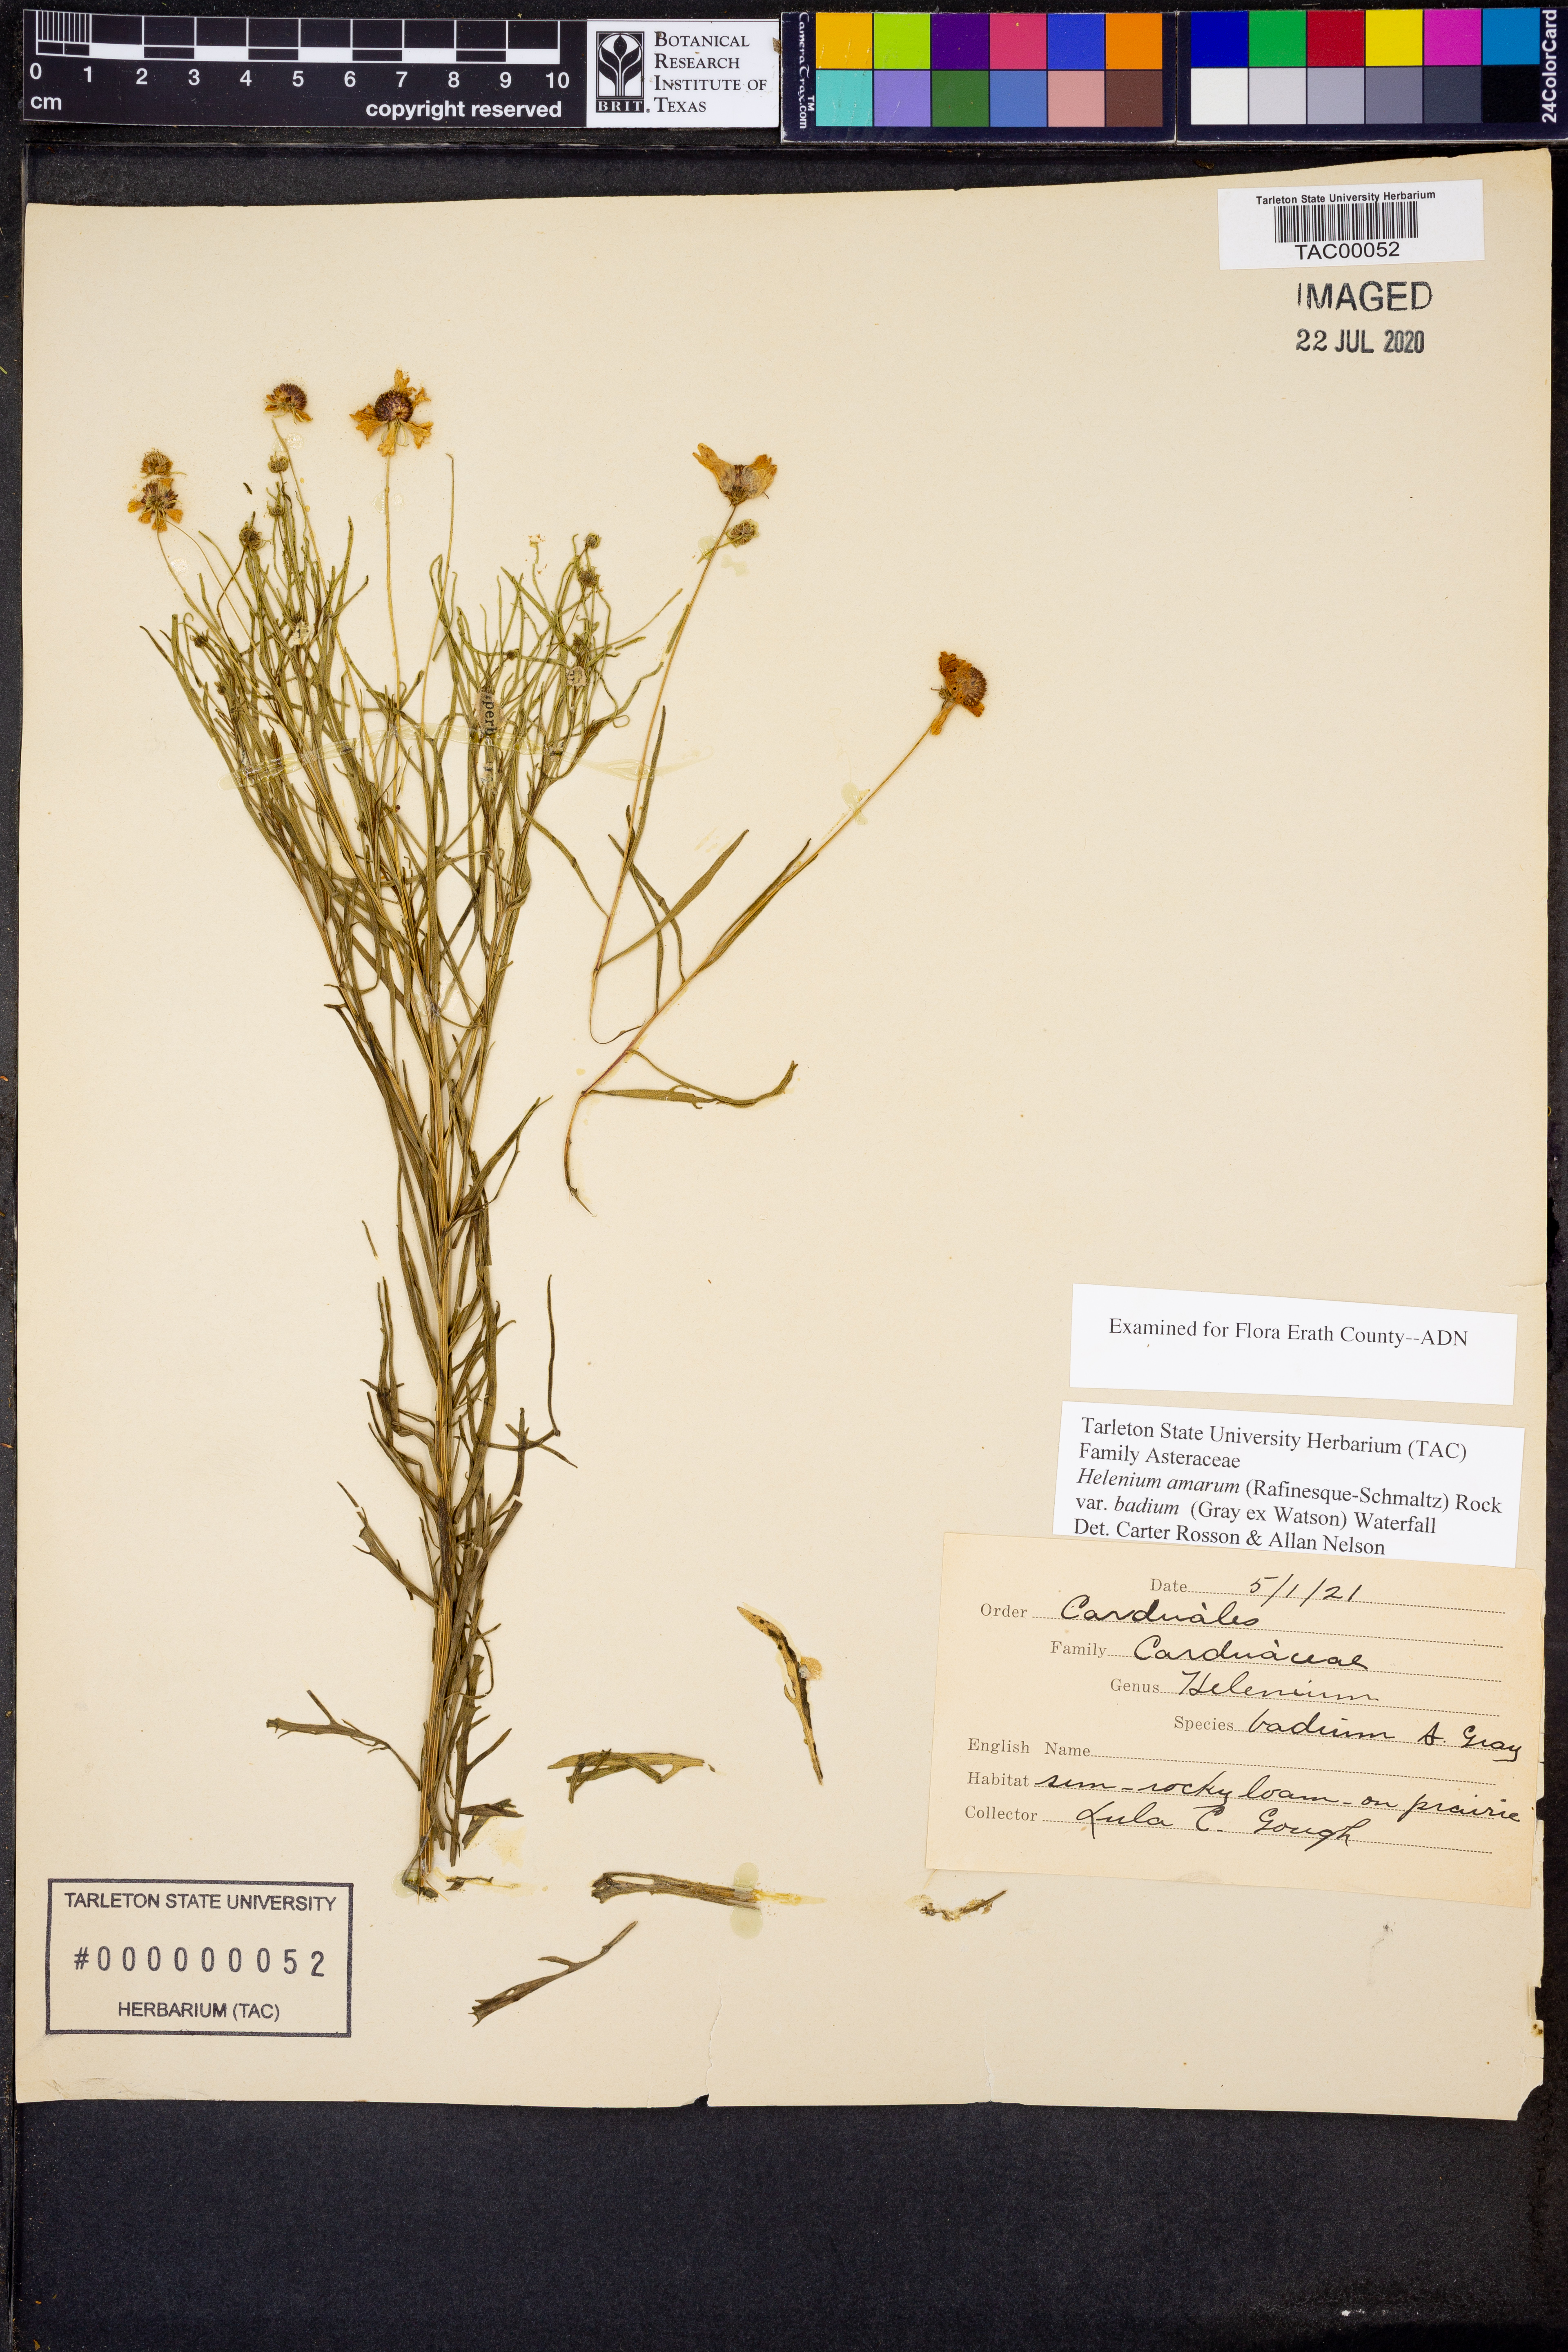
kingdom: Plantae
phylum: Tracheophyta
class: Magnoliopsida
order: Asterales
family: Asteraceae
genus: Helenium
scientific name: Helenium amarum
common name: Bitter sneezeweed
